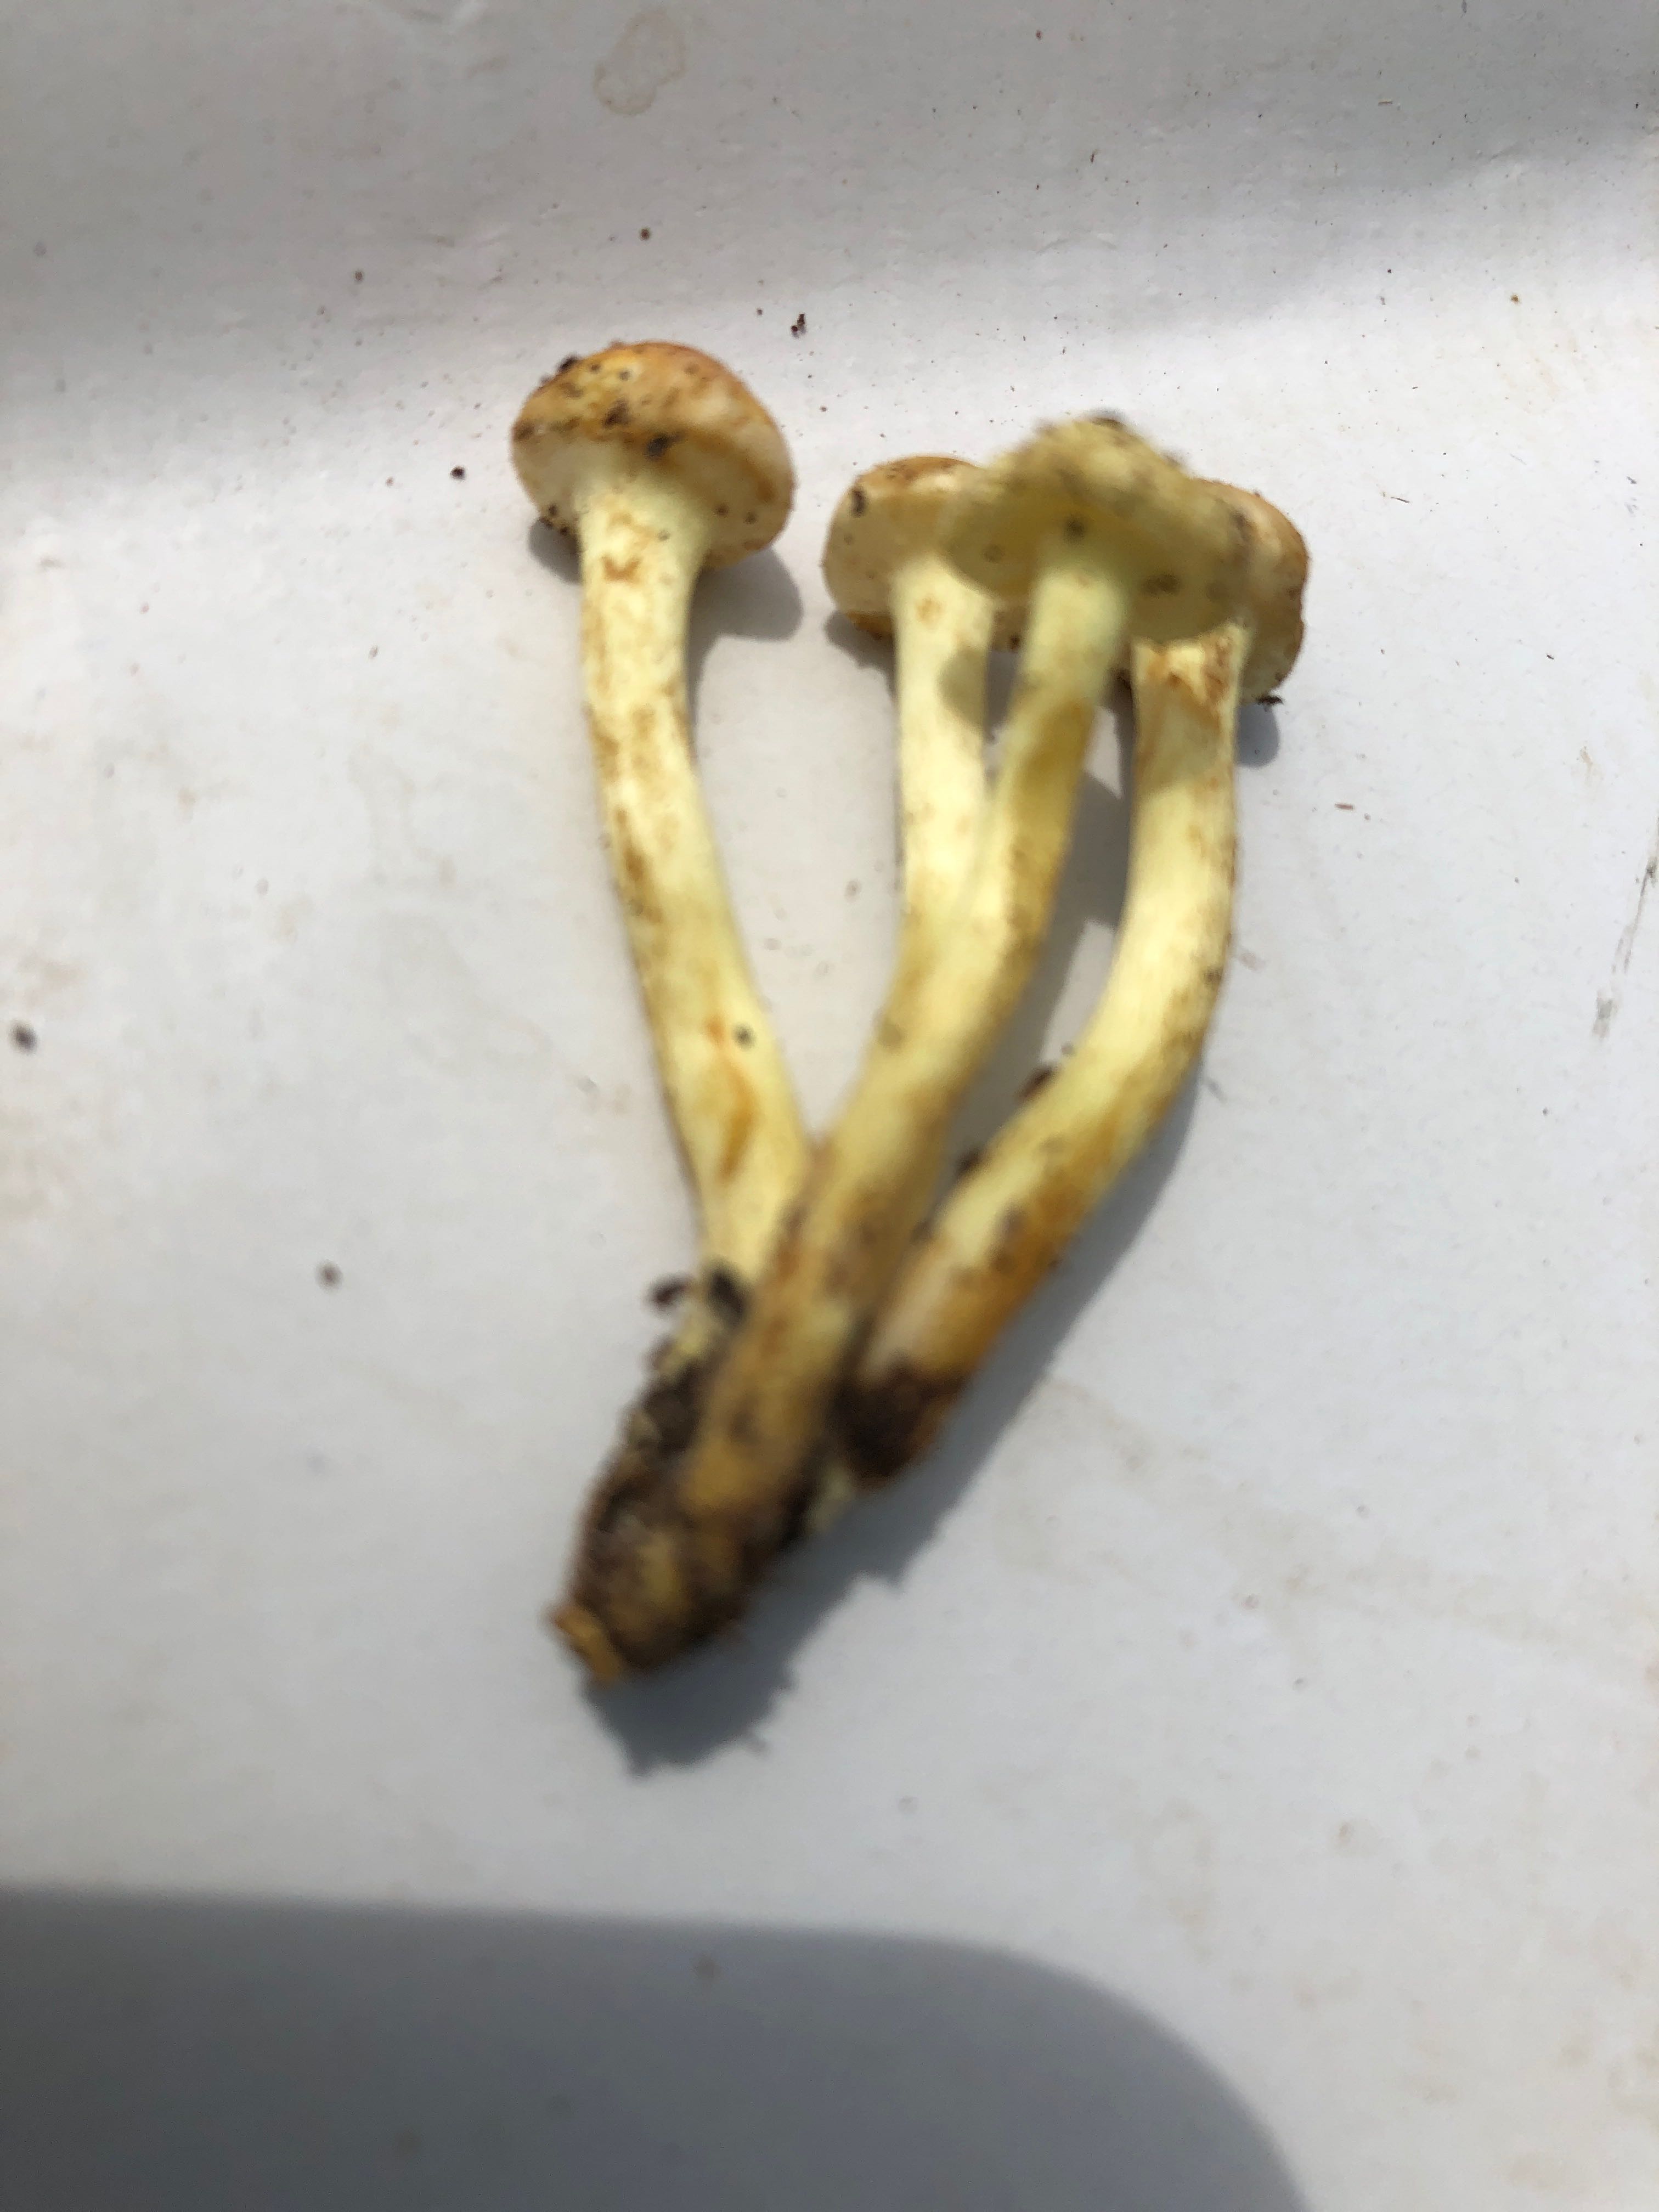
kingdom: Fungi
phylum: Basidiomycota
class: Agaricomycetes
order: Agaricales
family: Strophariaceae
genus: Hypholoma
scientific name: Hypholoma fasciculare
